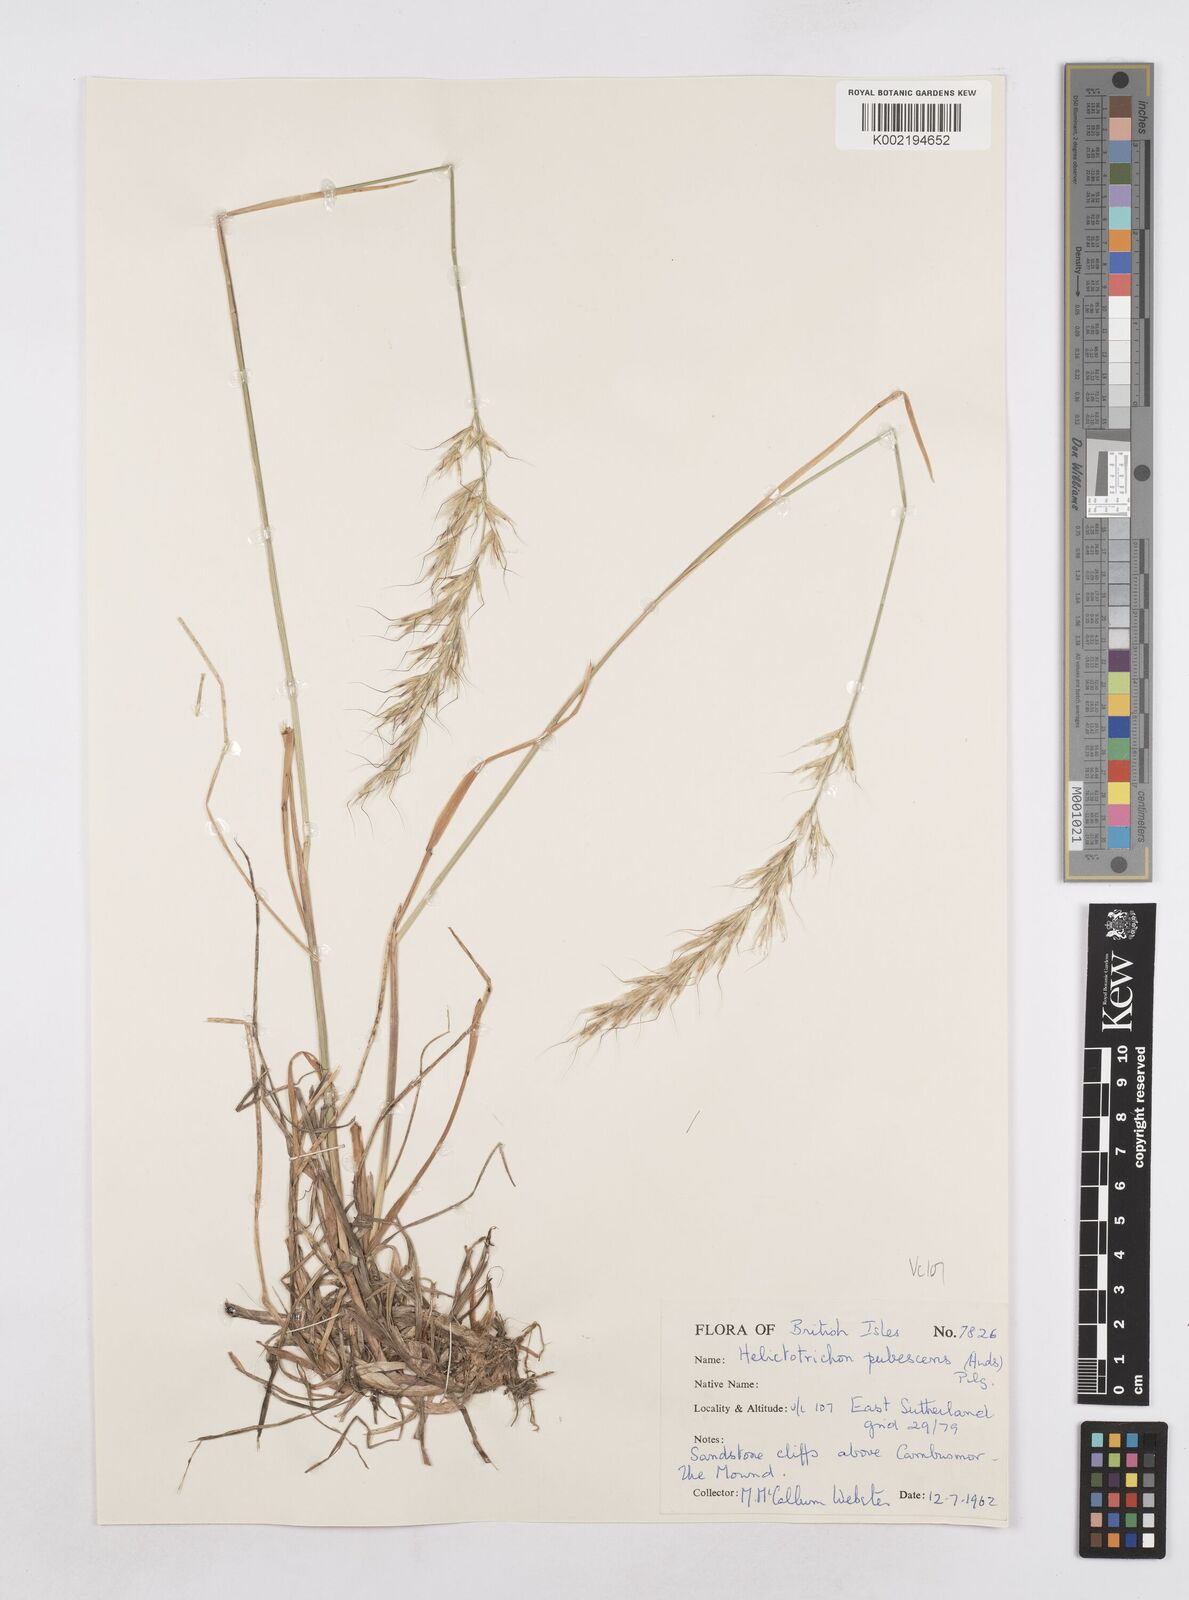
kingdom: Plantae
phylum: Tracheophyta
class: Liliopsida
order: Poales
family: Poaceae
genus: Avenula
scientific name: Avenula pubescens
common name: Downy alpine oatgrass
